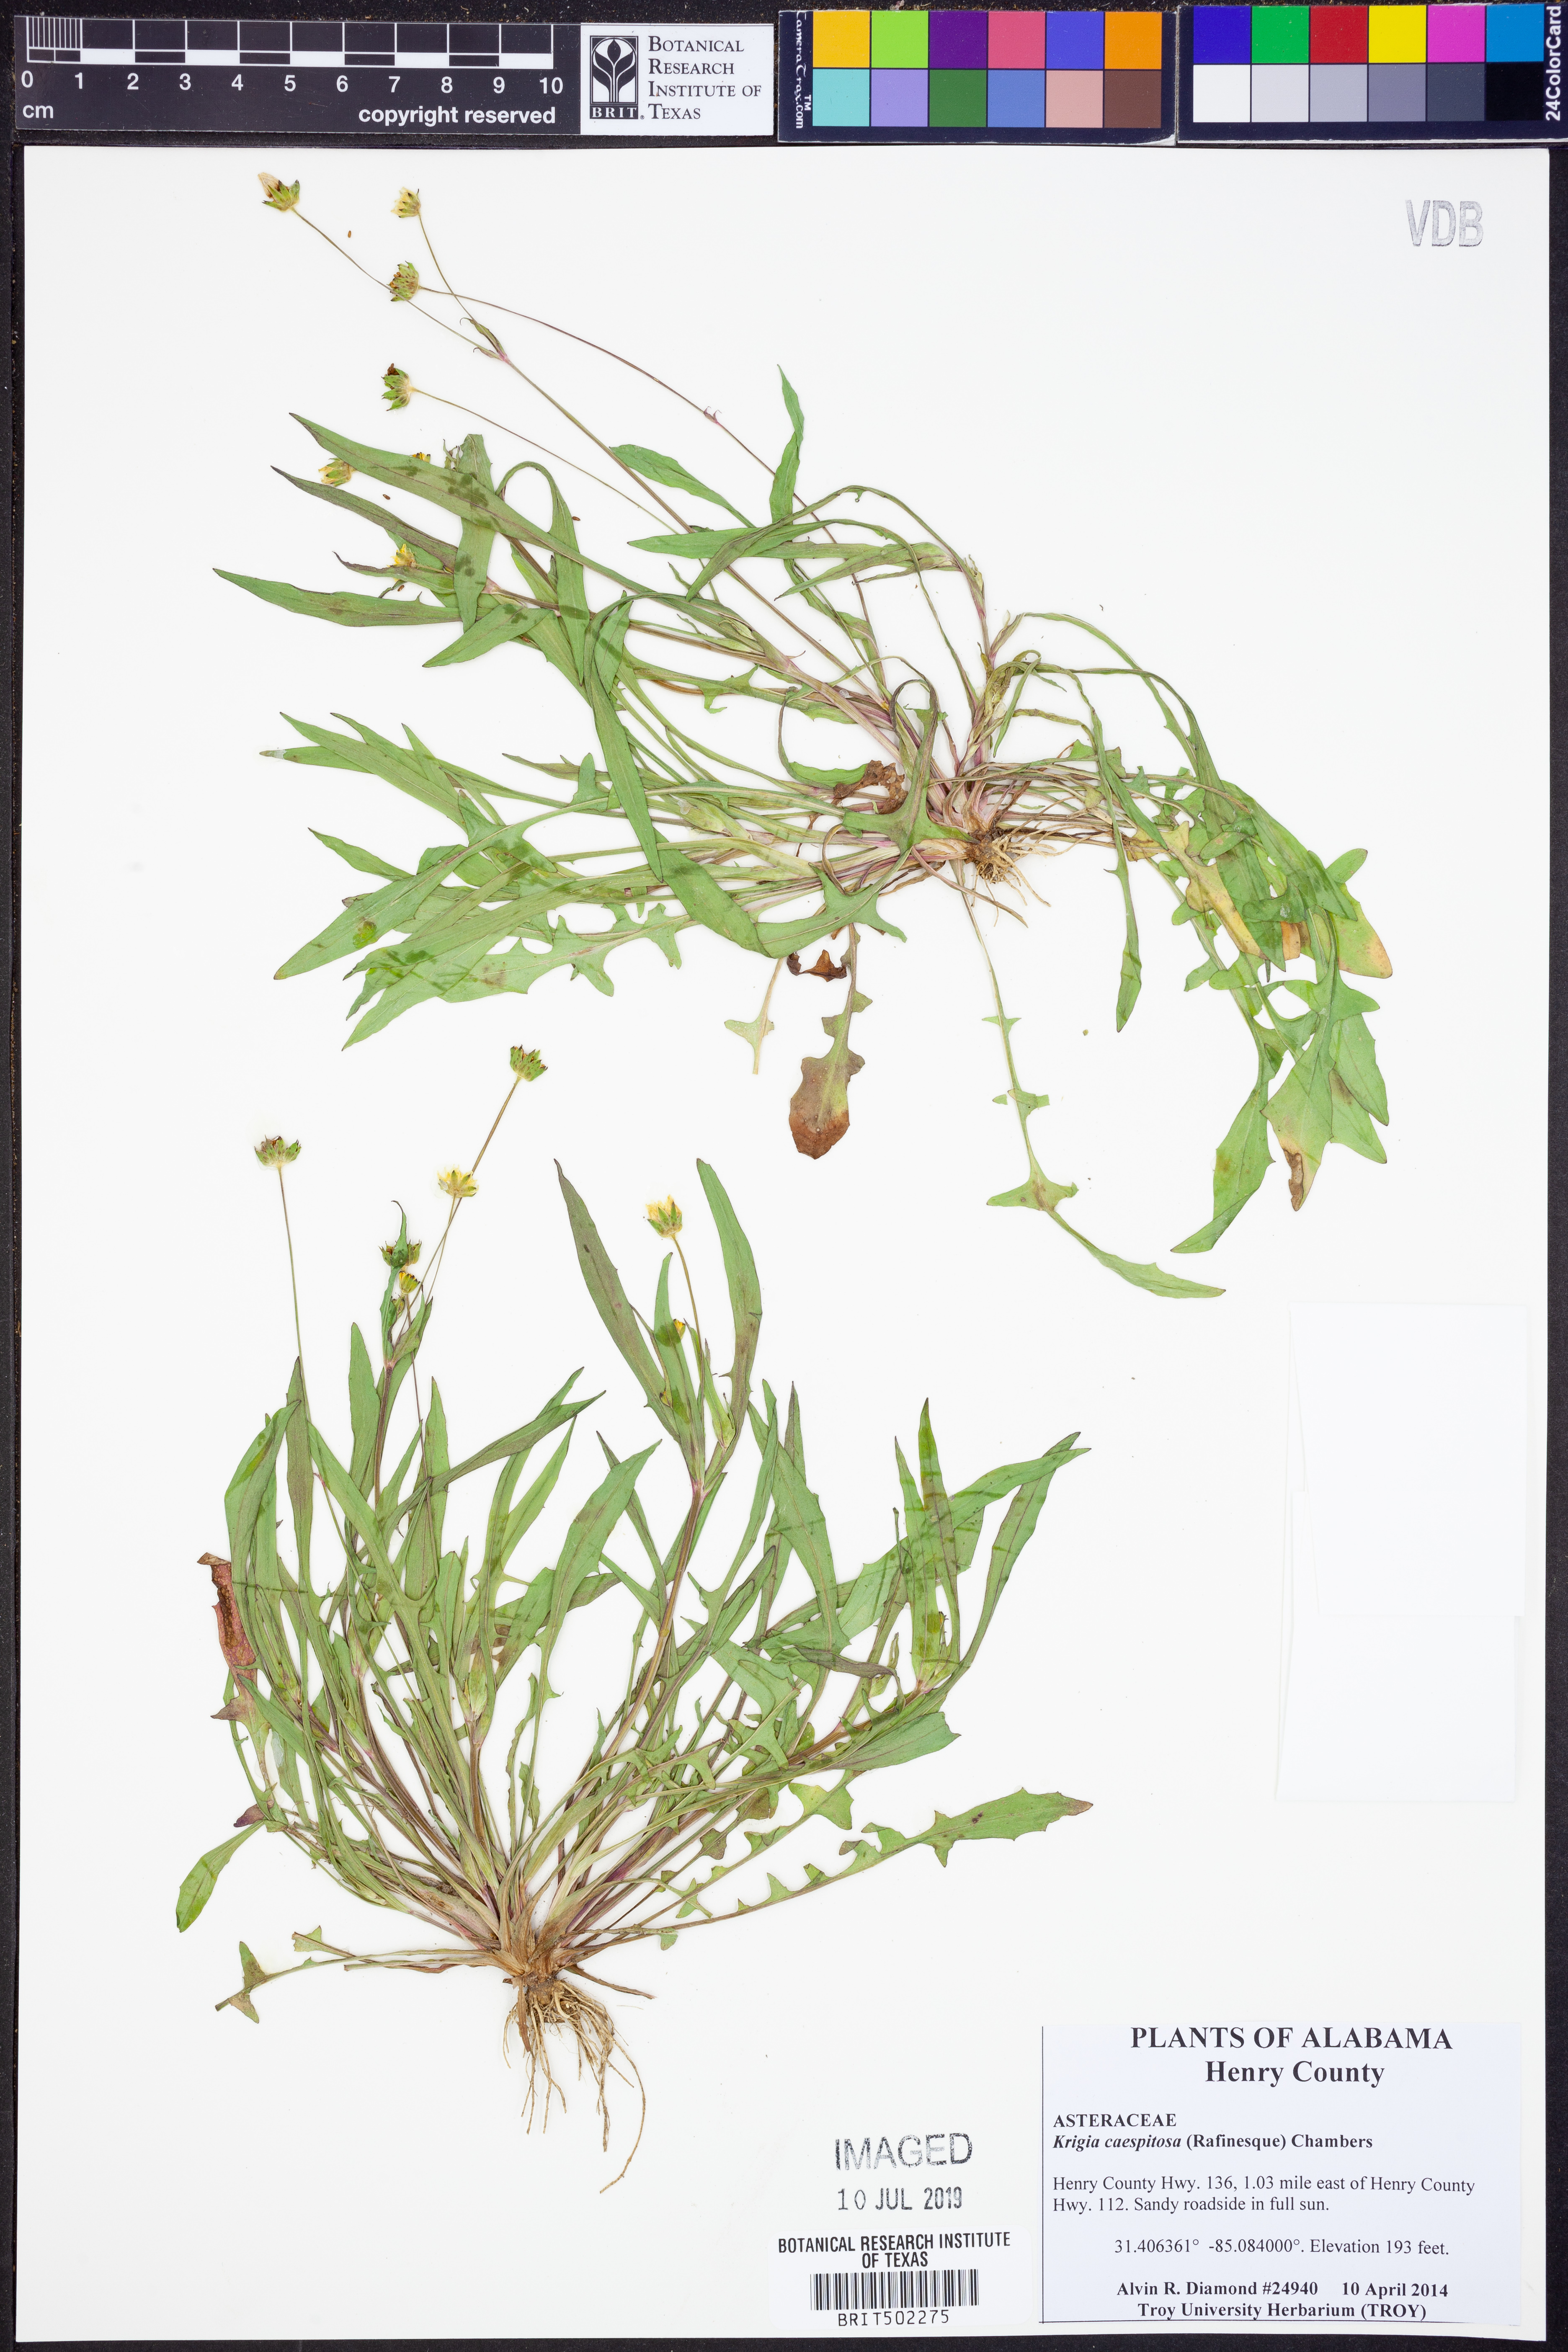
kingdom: Plantae
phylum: Tracheophyta
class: Magnoliopsida
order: Asterales
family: Asteraceae
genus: Krigia
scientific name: Krigia caespitosa
